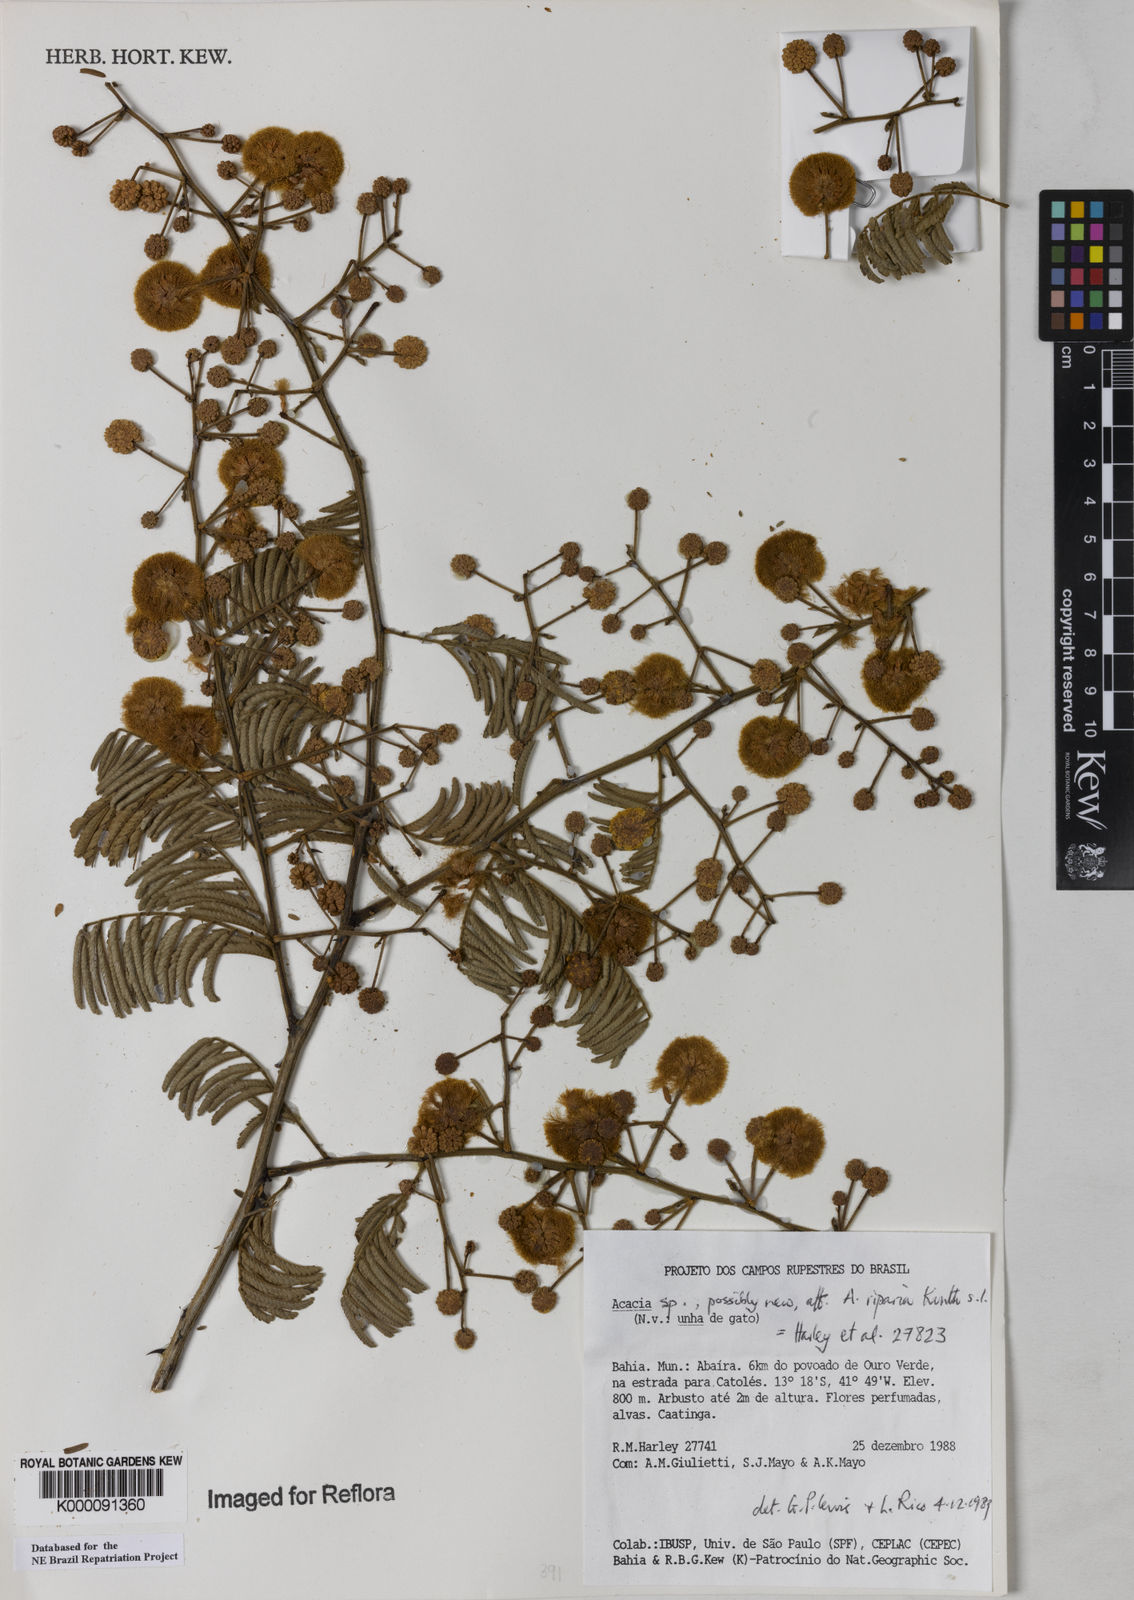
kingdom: Plantae
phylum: Tracheophyta
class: Magnoliopsida
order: Fabales
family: Fabaceae
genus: Senegalia
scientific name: Senegalia riparia
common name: Catch-and-keep
